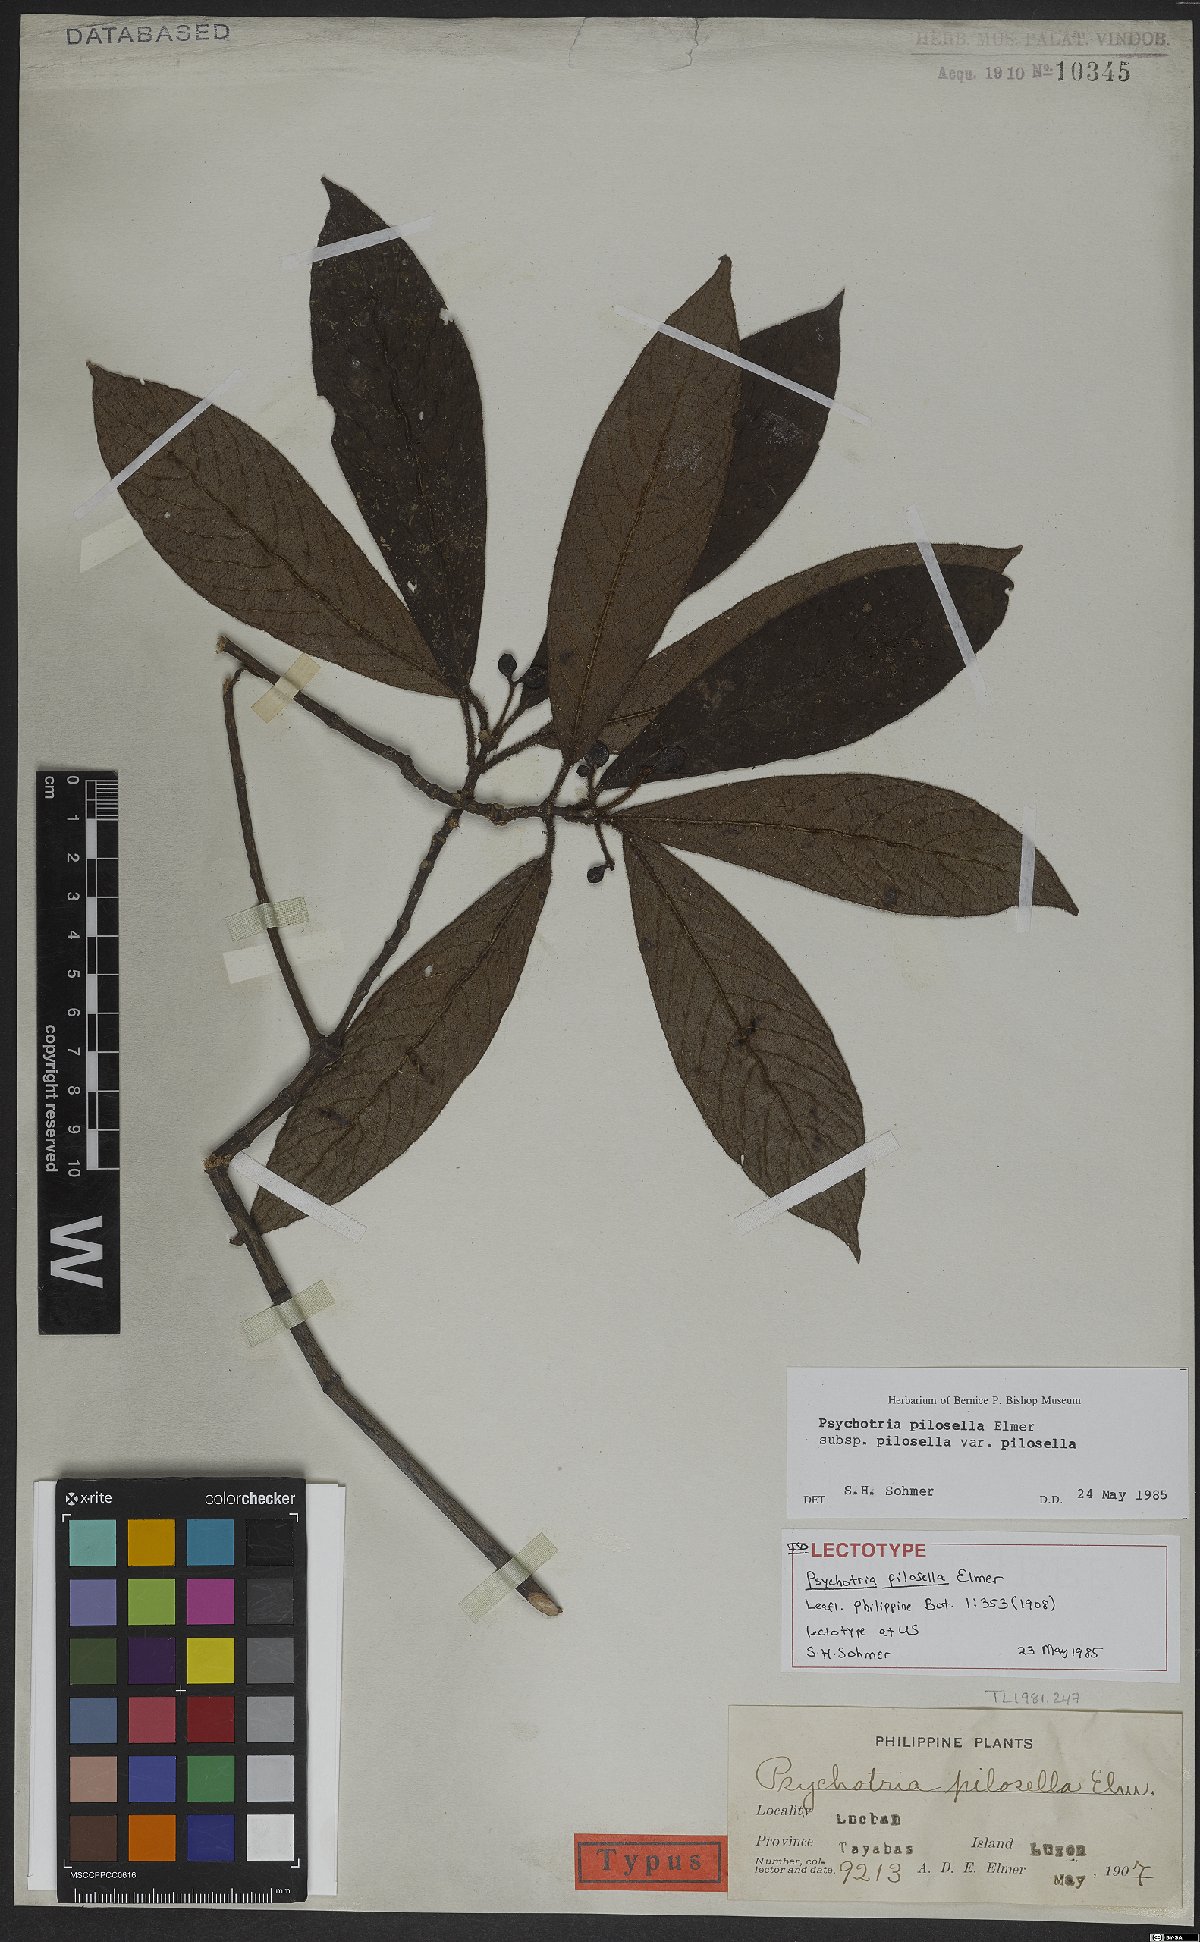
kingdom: Plantae
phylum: Tracheophyta
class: Magnoliopsida
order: Gentianales
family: Rubiaceae
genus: Psychotria
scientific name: Psychotria pilosella
